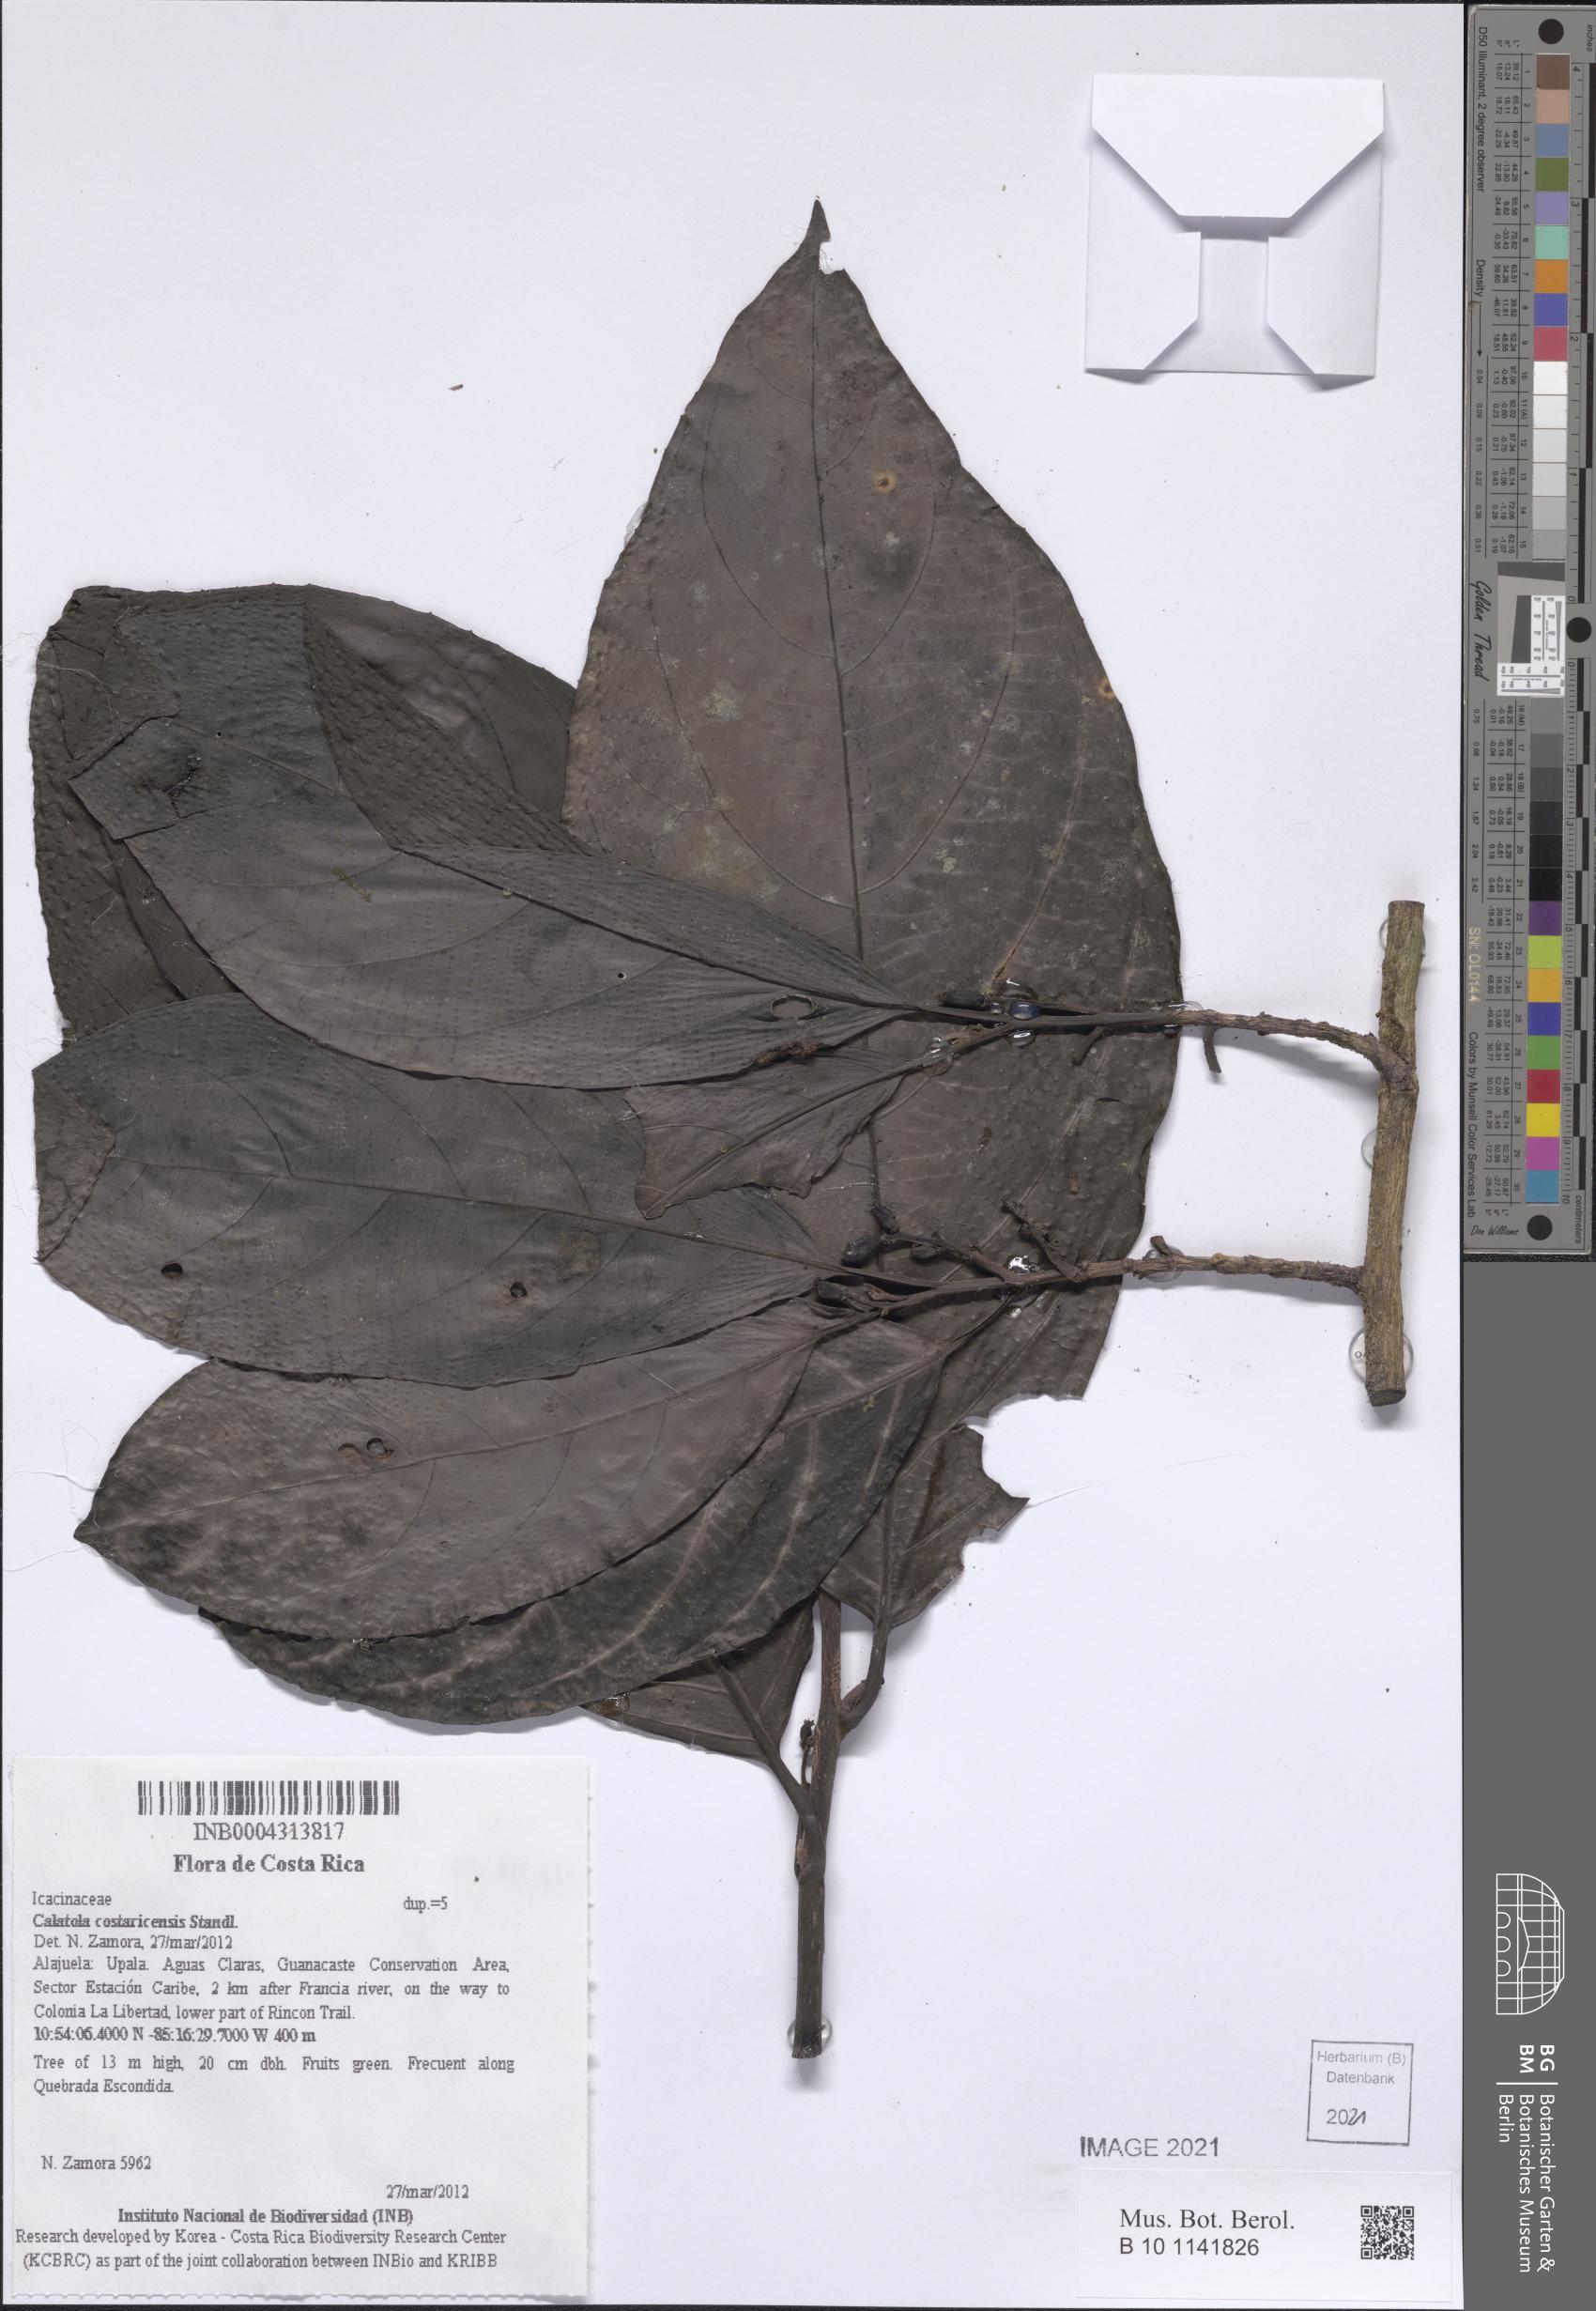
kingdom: Plantae
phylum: Tracheophyta
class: Magnoliopsida
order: Metteniusales
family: Metteniusaceae
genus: Calatola
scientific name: Calatola costaricensis
